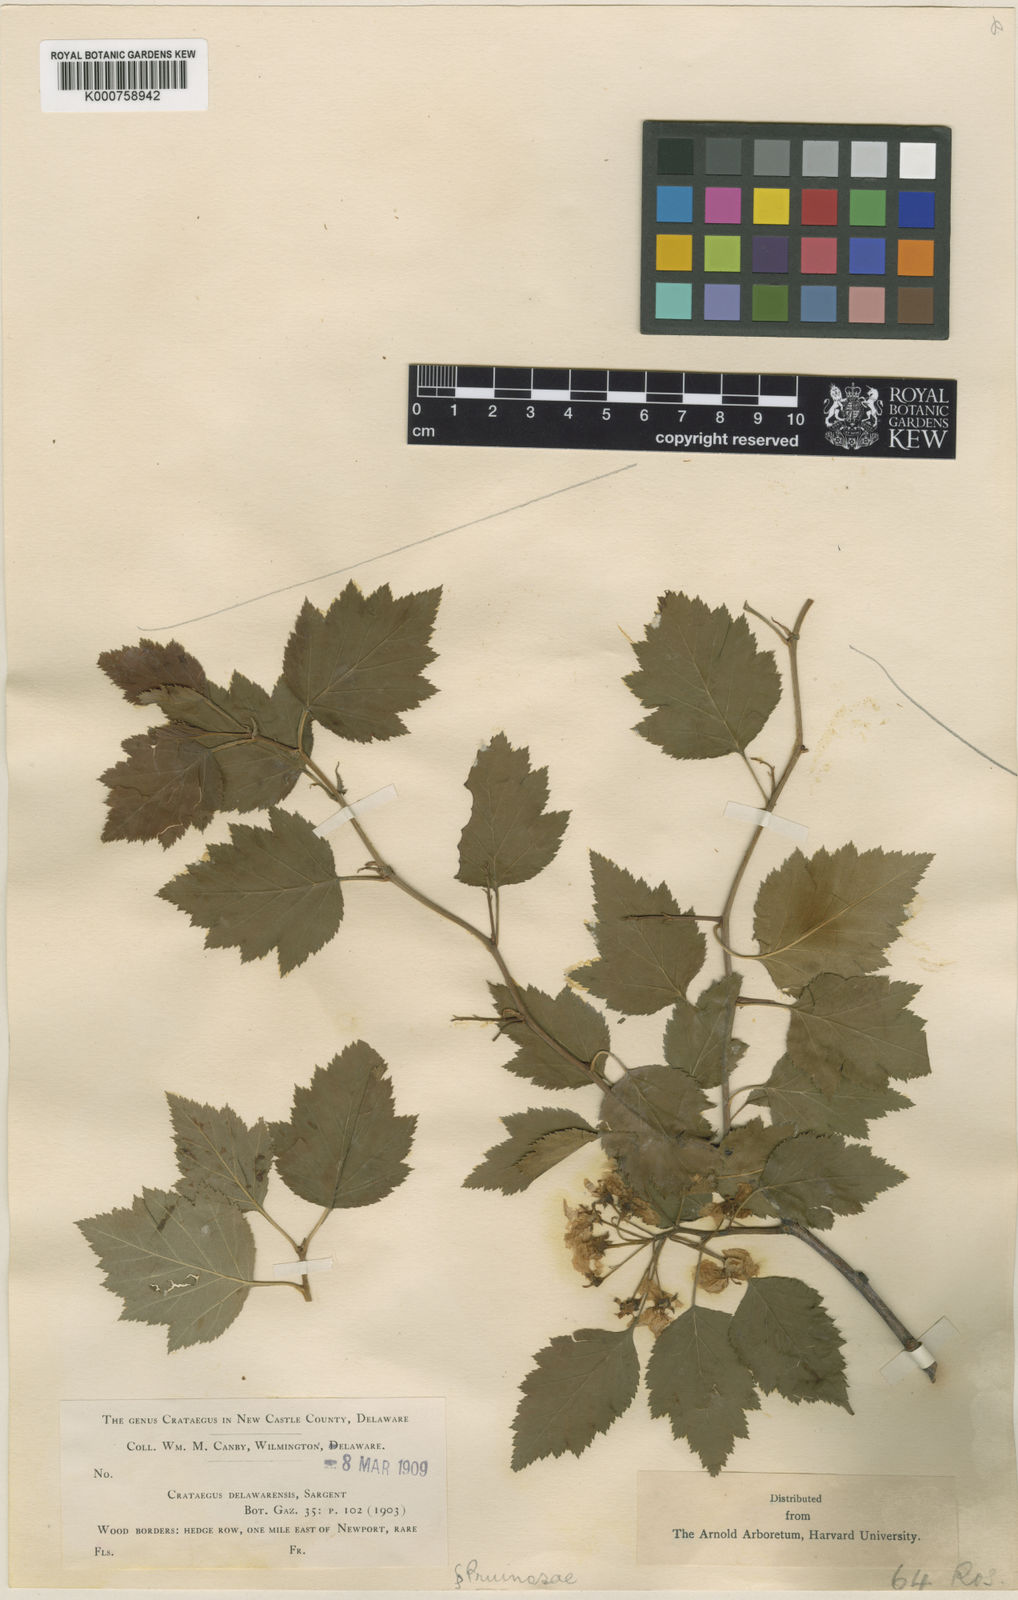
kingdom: Plantae
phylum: Tracheophyta
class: Magnoliopsida
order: Rosales
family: Rosaceae
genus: Crataegus
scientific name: Crataegus delawarensis
